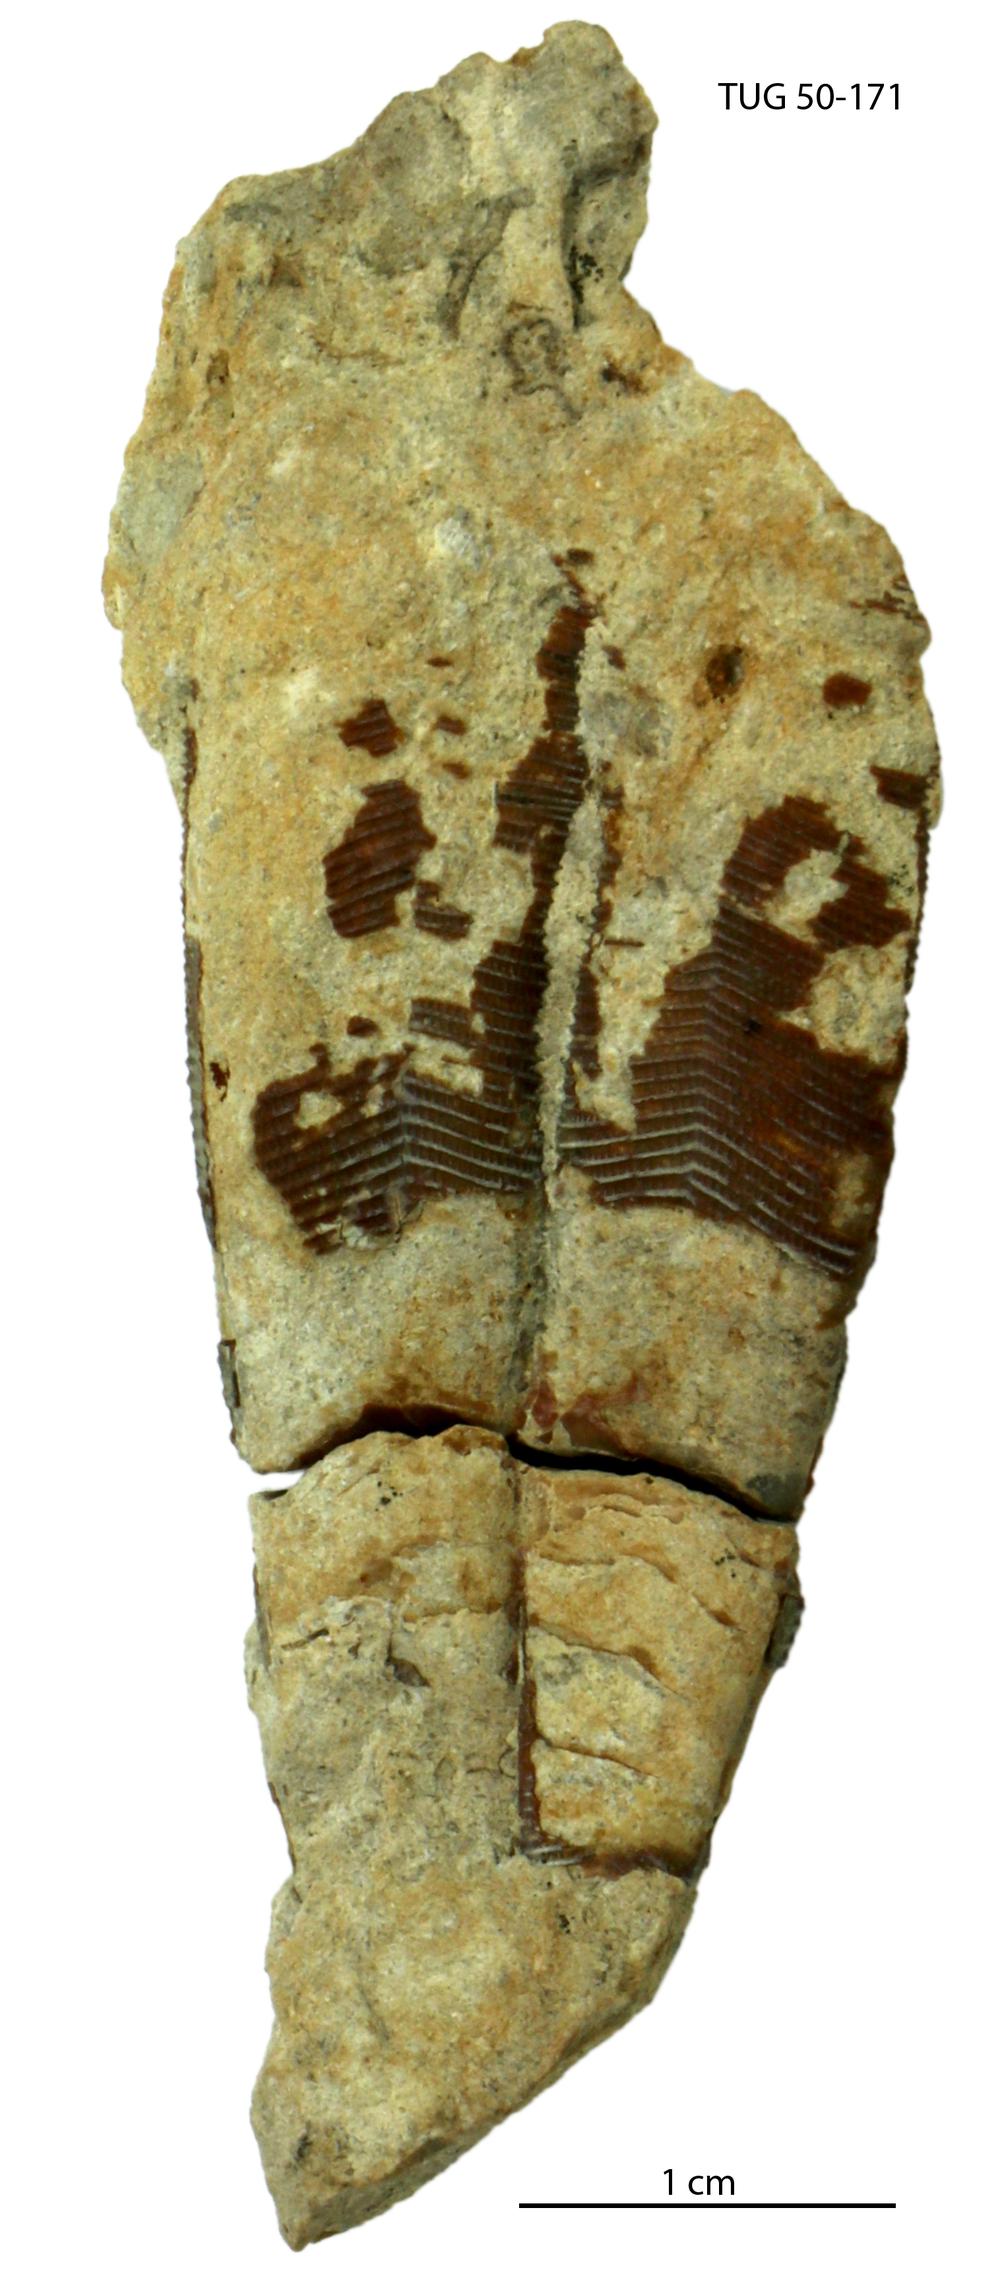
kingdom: Animalia
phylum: Cnidaria
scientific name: Cnidaria
